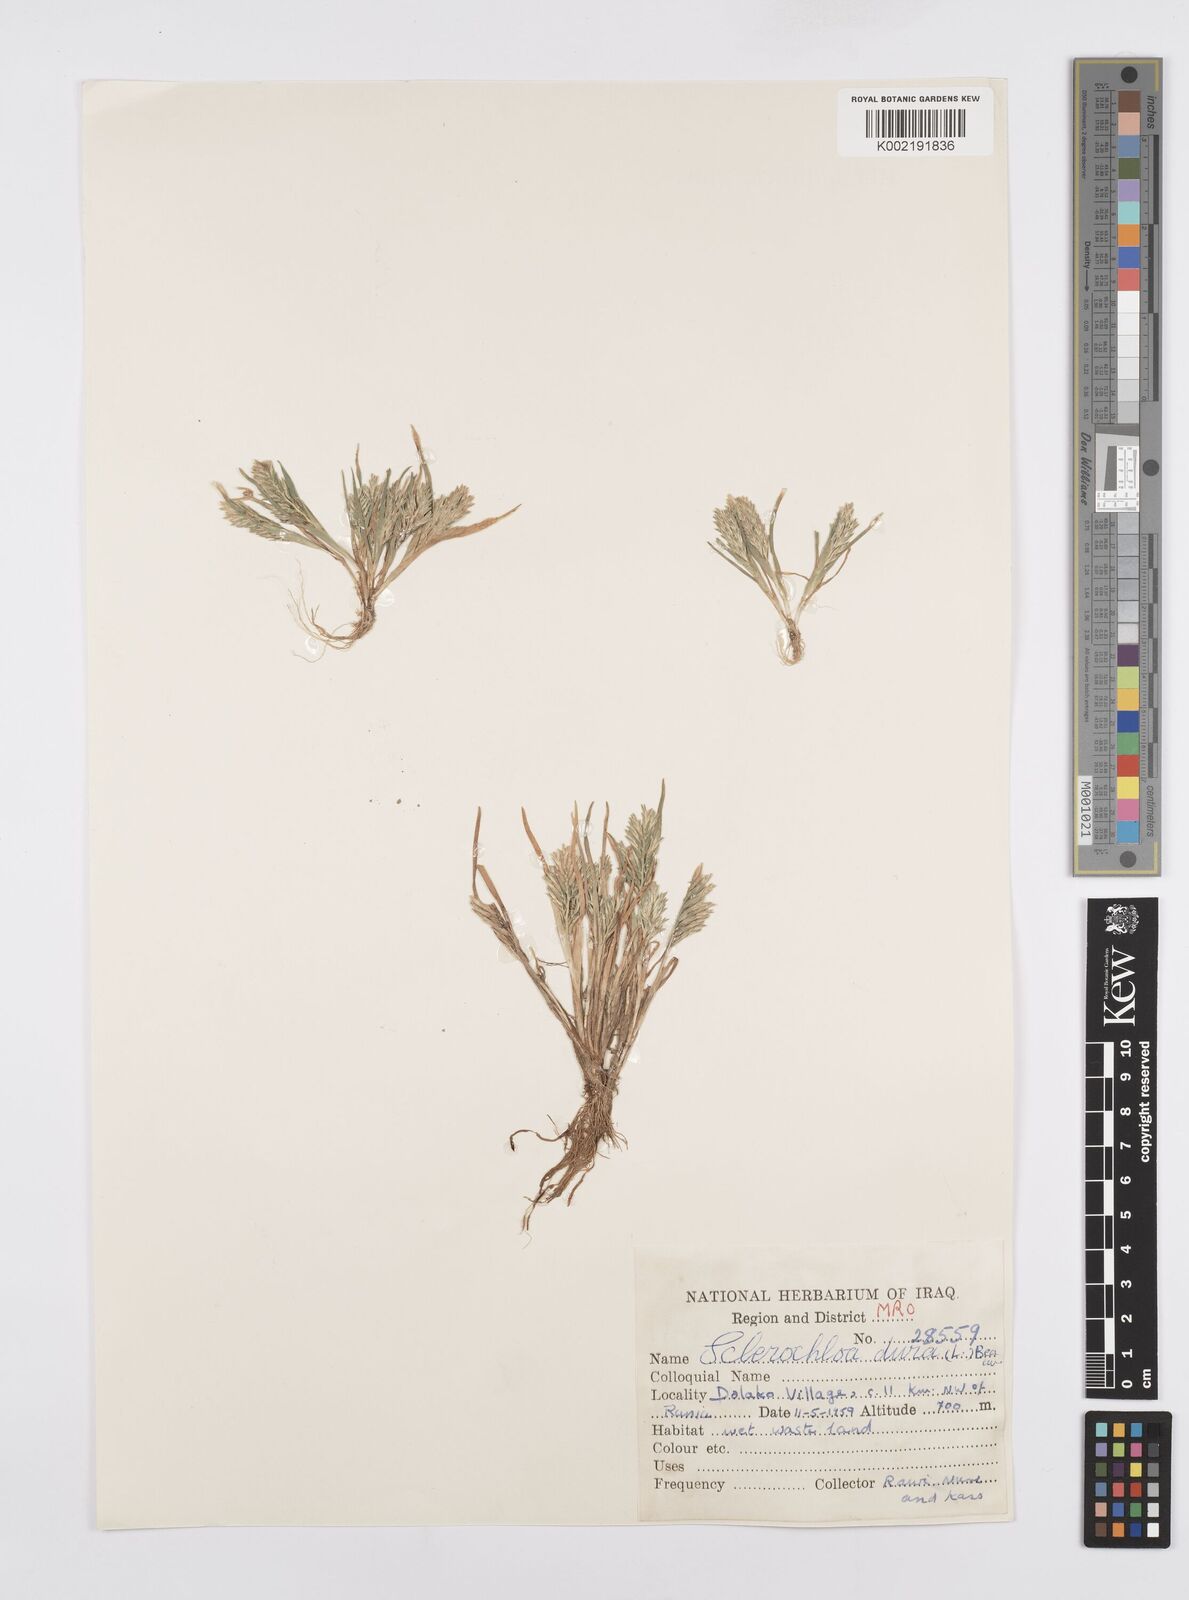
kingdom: Plantae
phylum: Tracheophyta
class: Liliopsida
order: Poales
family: Poaceae
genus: Sclerochloa
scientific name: Sclerochloa dura
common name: Common hardgrass
